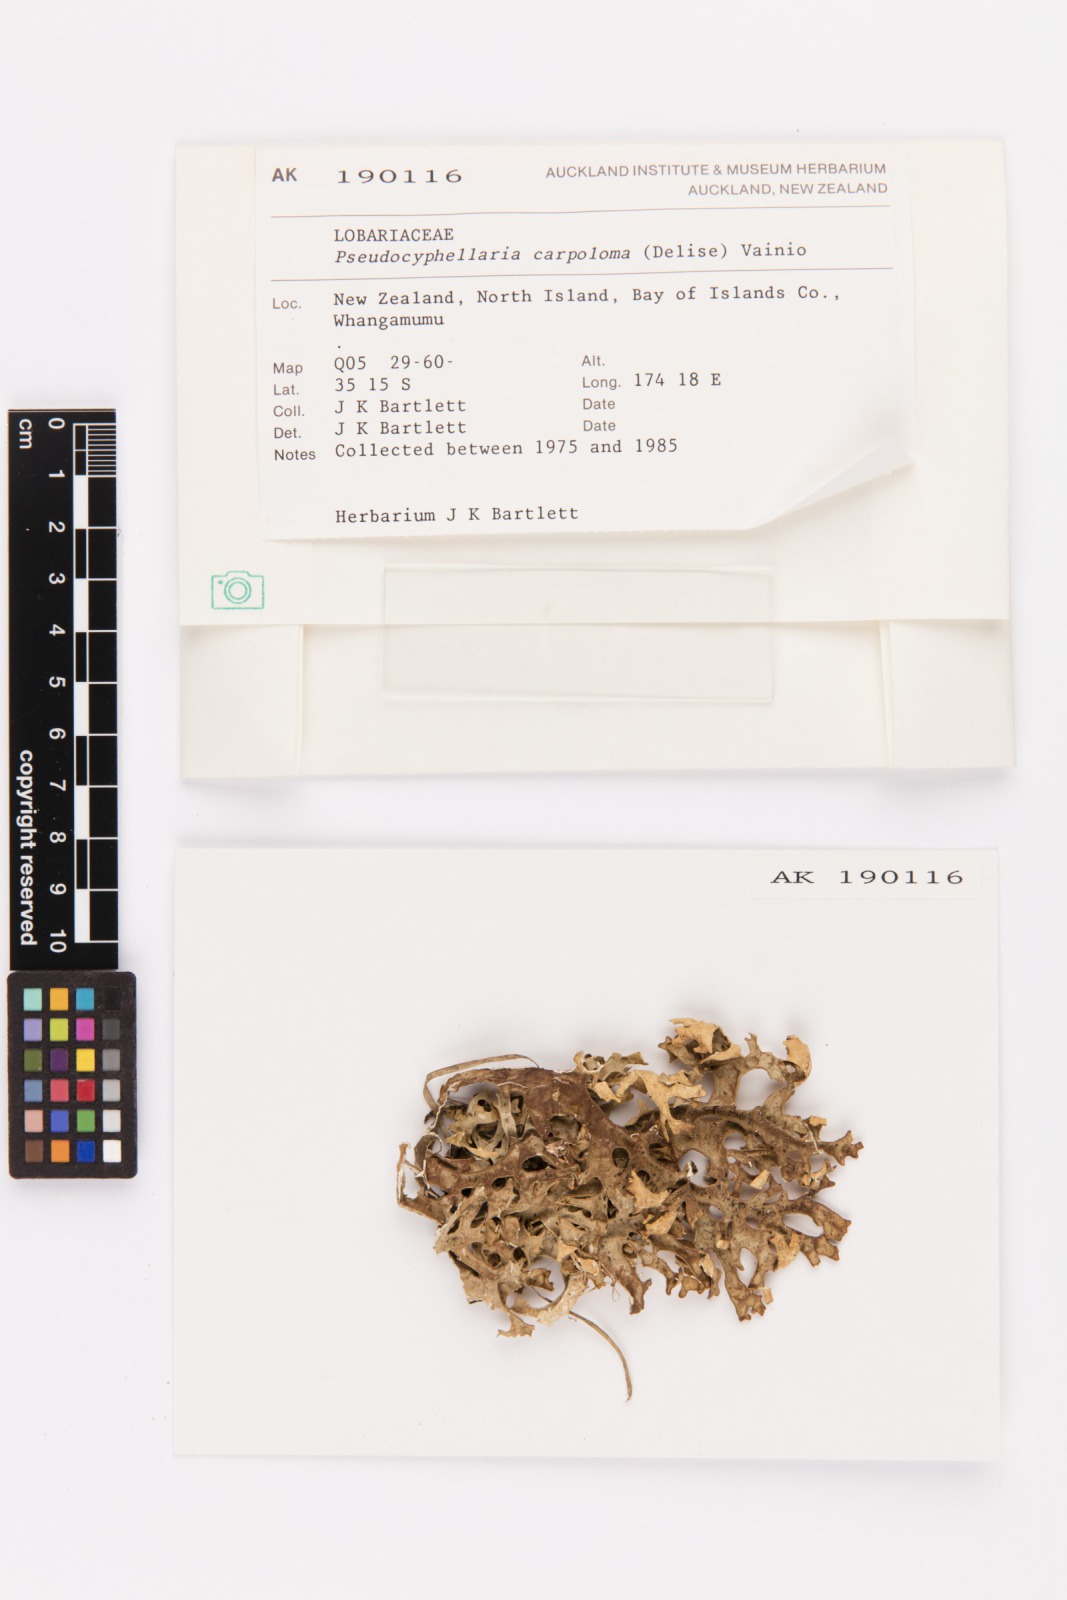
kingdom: Fungi
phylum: Ascomycota
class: Lecanoromycetes
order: Peltigerales
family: Lobariaceae
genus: Pseudocyphellaria
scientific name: Pseudocyphellaria carpoloma
